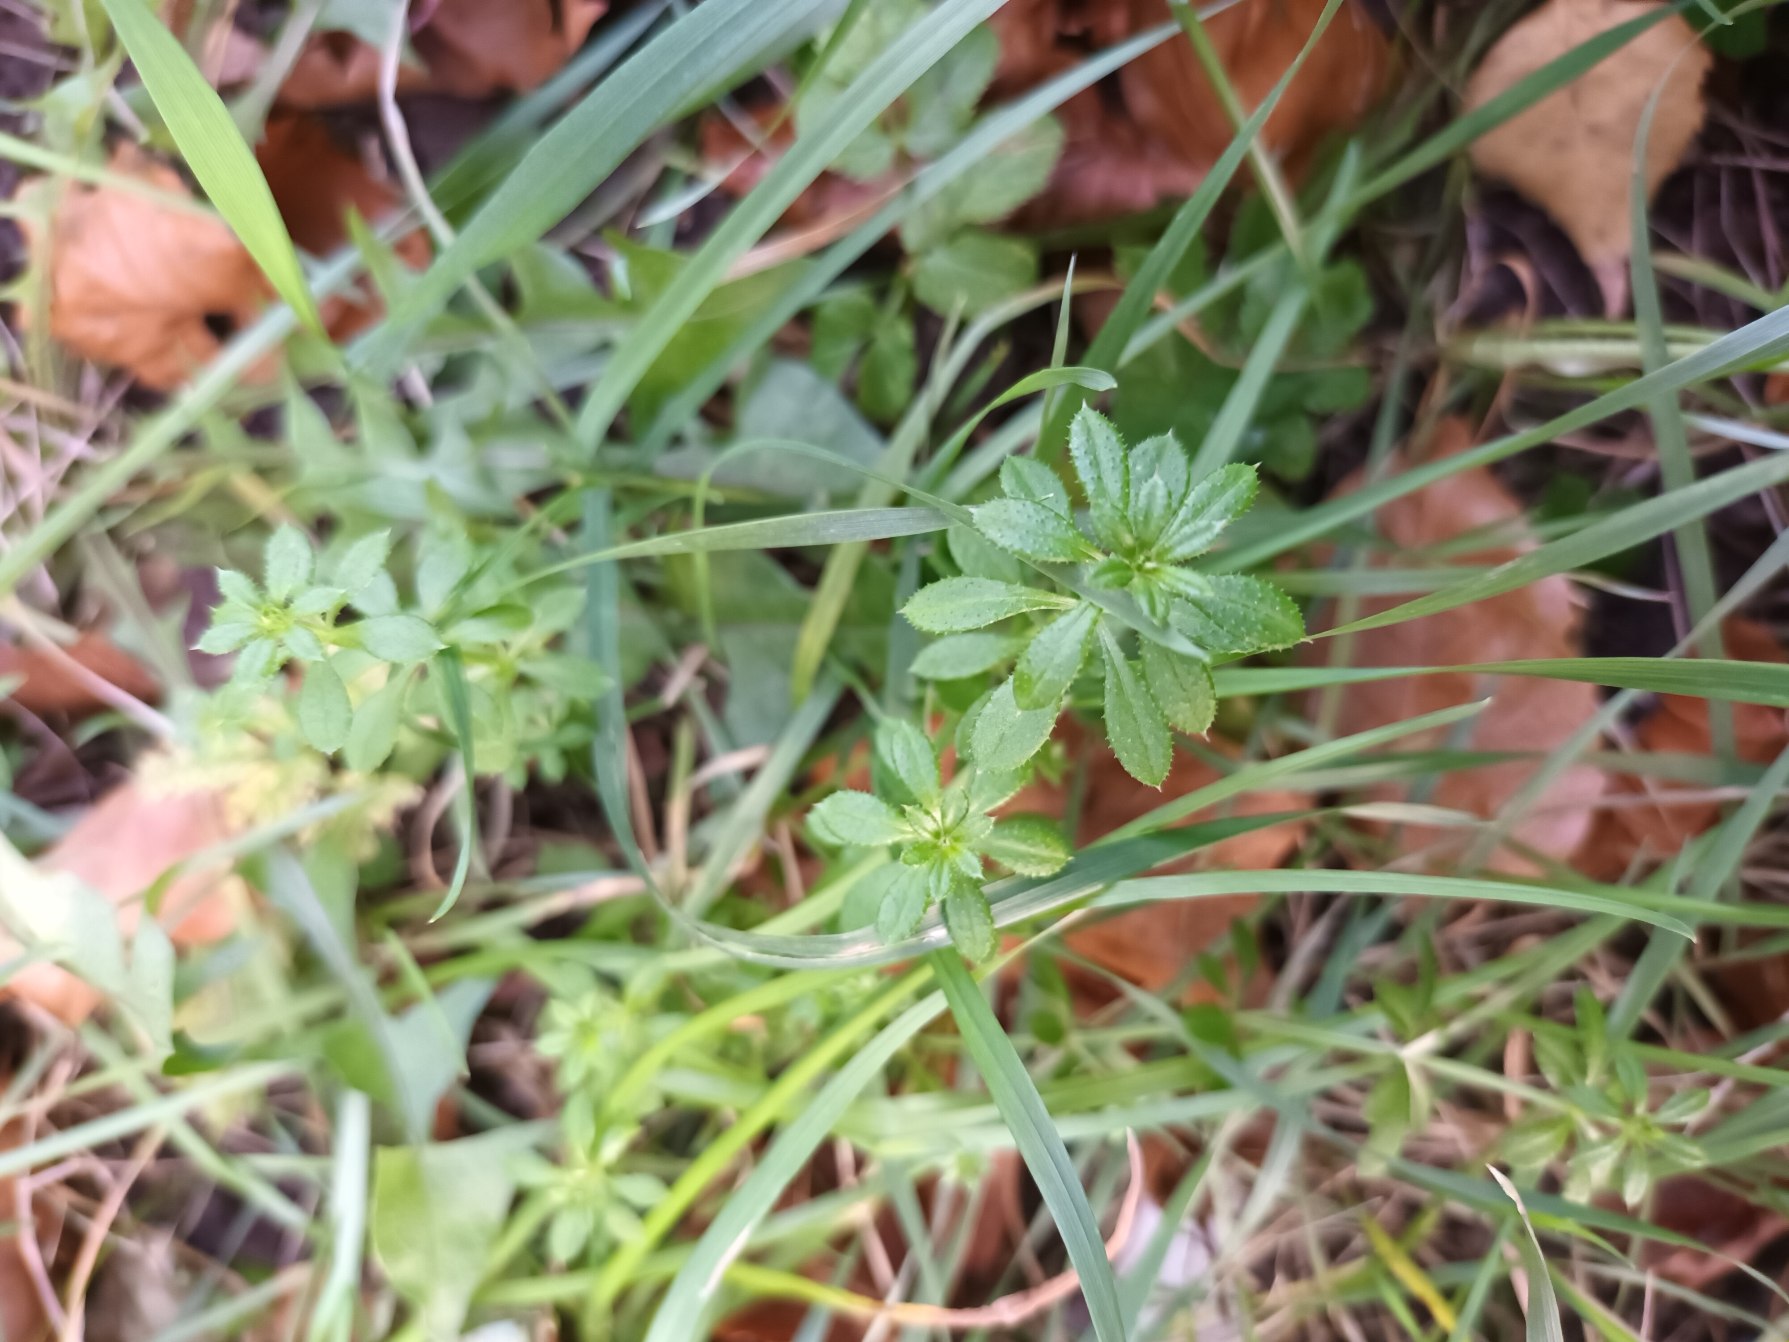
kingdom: Plantae
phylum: Tracheophyta
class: Magnoliopsida
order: Gentianales
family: Rubiaceae
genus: Galium
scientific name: Galium aparine
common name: Burre-snerre
